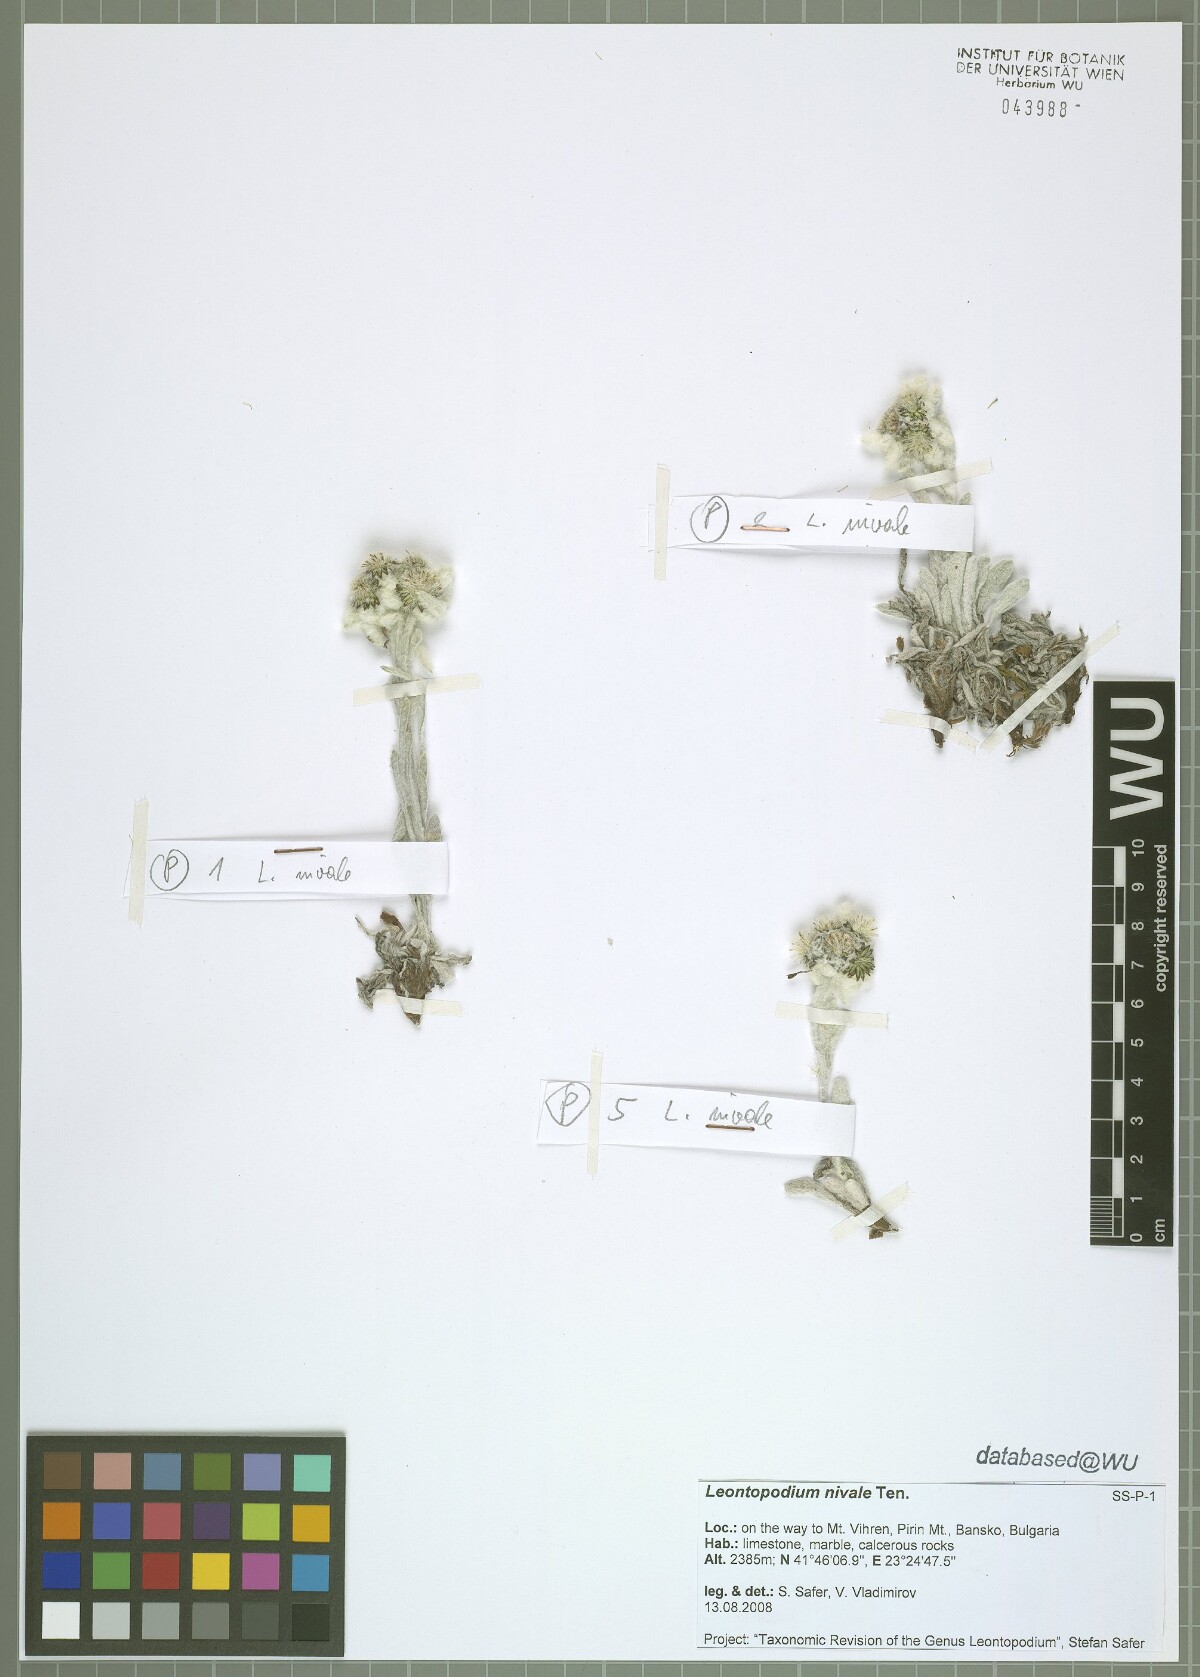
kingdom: Plantae
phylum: Tracheophyta
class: Magnoliopsida
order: Asterales
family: Asteraceae
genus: Leontopodium
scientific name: Leontopodium nivale
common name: Edelweiss
